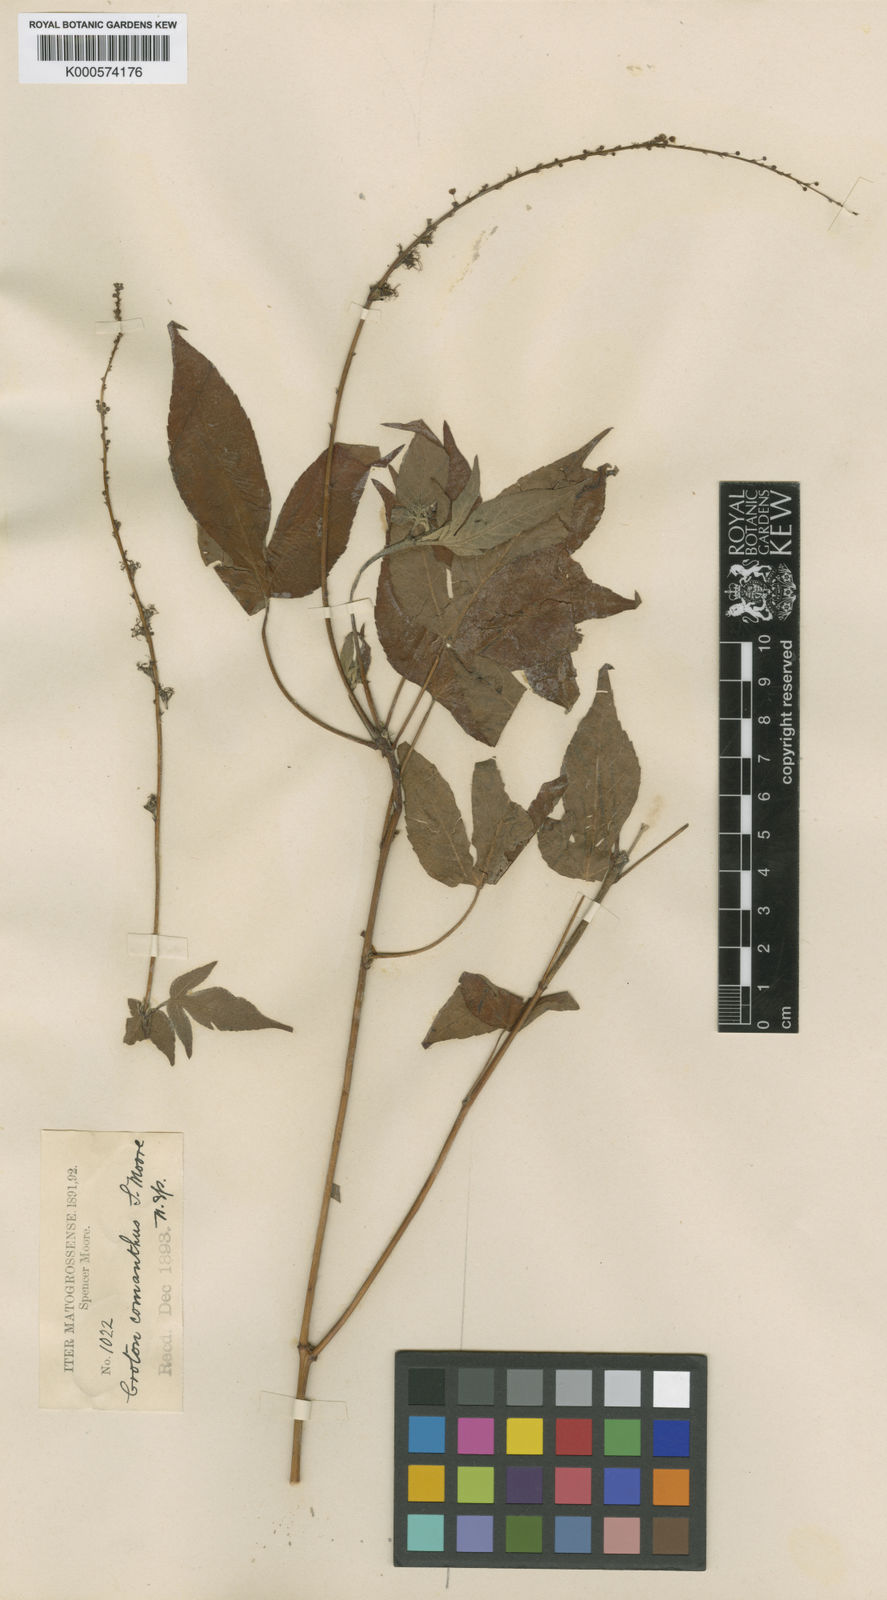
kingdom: Plantae
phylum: Tracheophyta
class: Magnoliopsida
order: Malpighiales
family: Euphorbiaceae
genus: Astraea
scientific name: Astraea paulina
